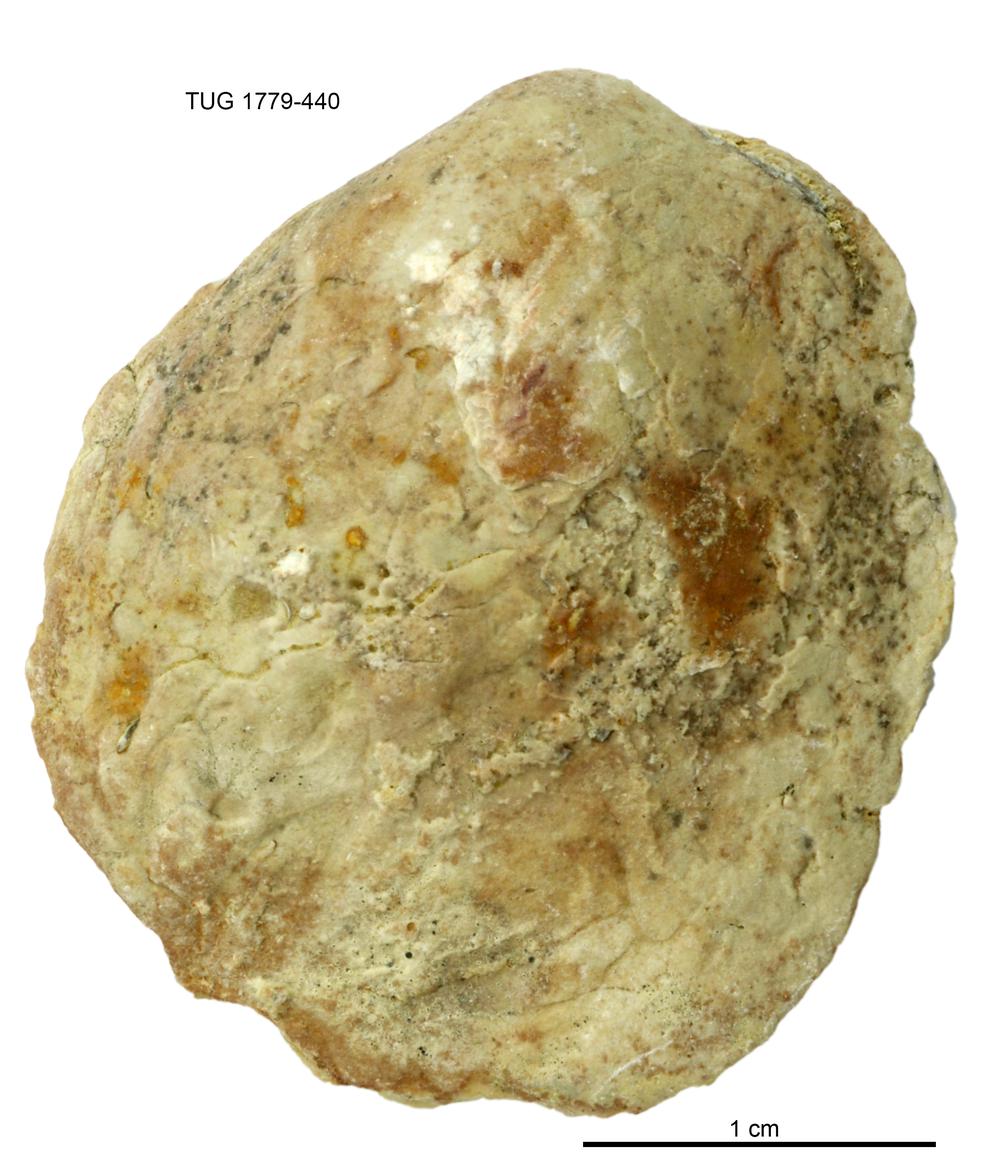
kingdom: Animalia
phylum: Mollusca
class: Bivalvia
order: Modiomorphida
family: Modiomorphidae
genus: Modiolopsis
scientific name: Modiolopsis
